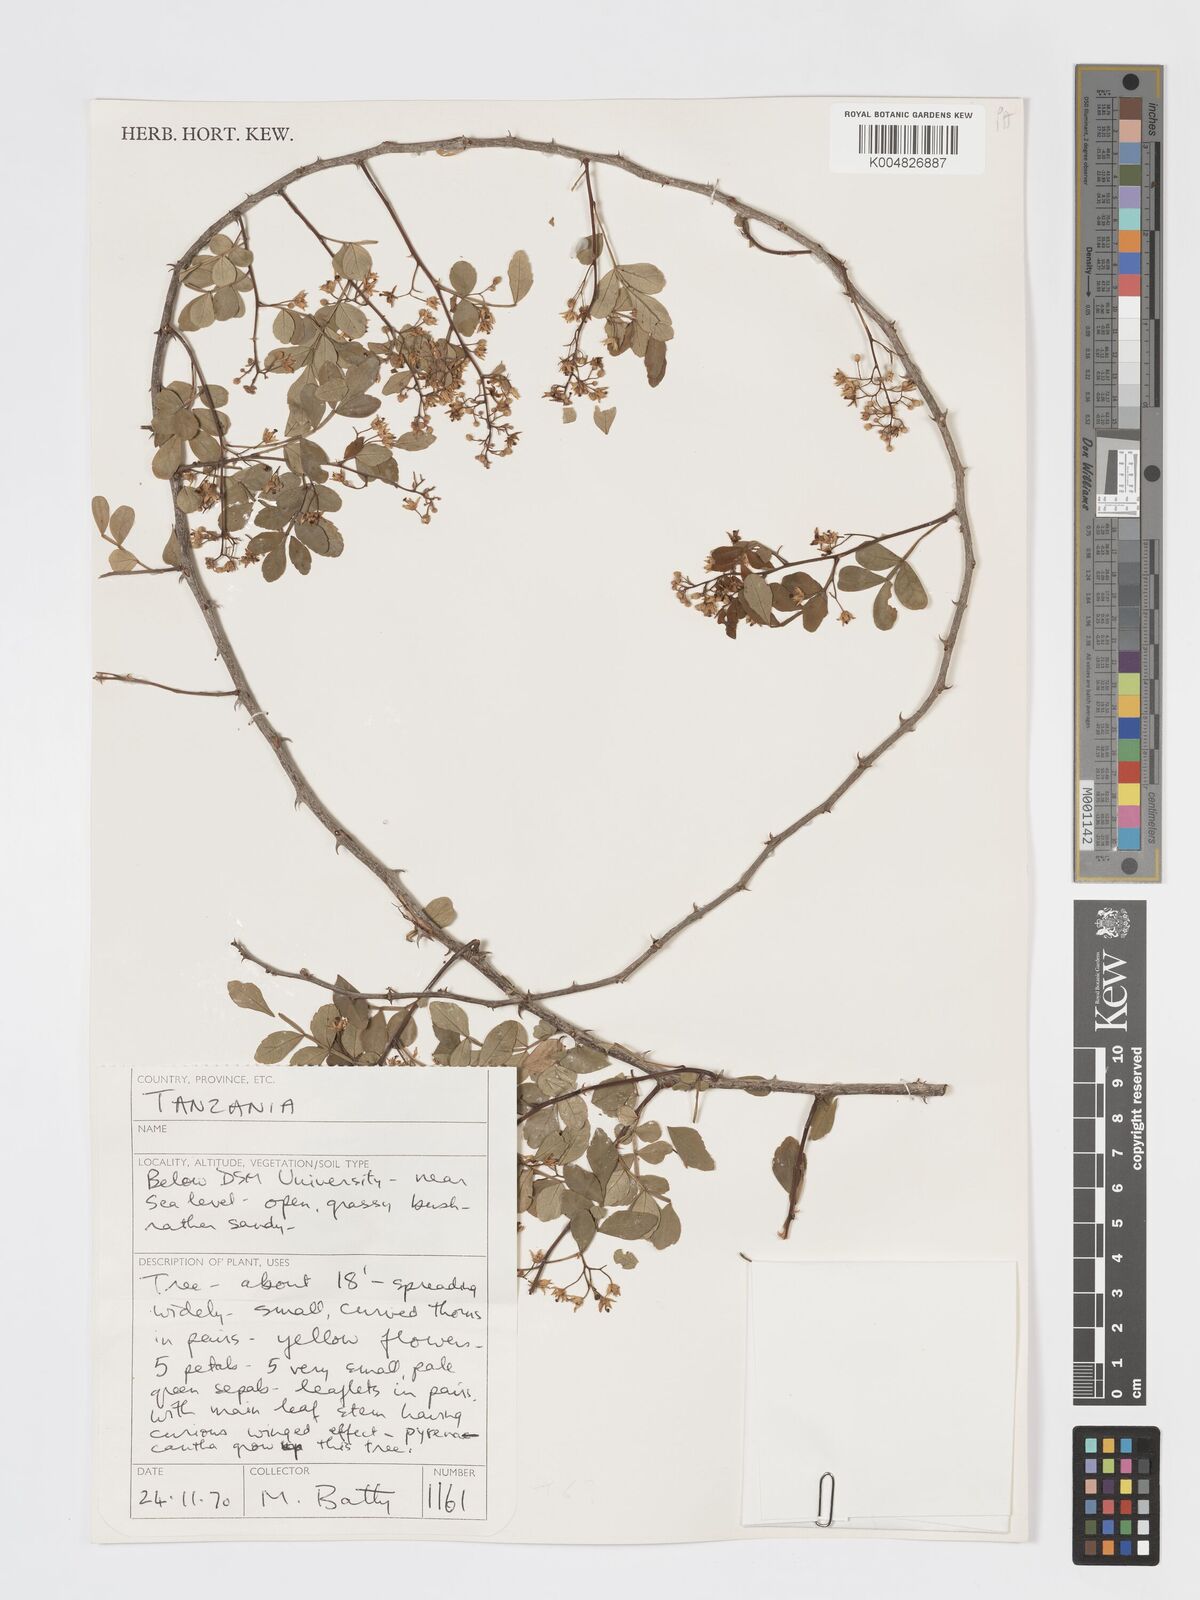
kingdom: Plantae
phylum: Tracheophyta
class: Magnoliopsida
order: Sapindales
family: Rutaceae
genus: Harrisonia
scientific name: Harrisonia abyssinica
